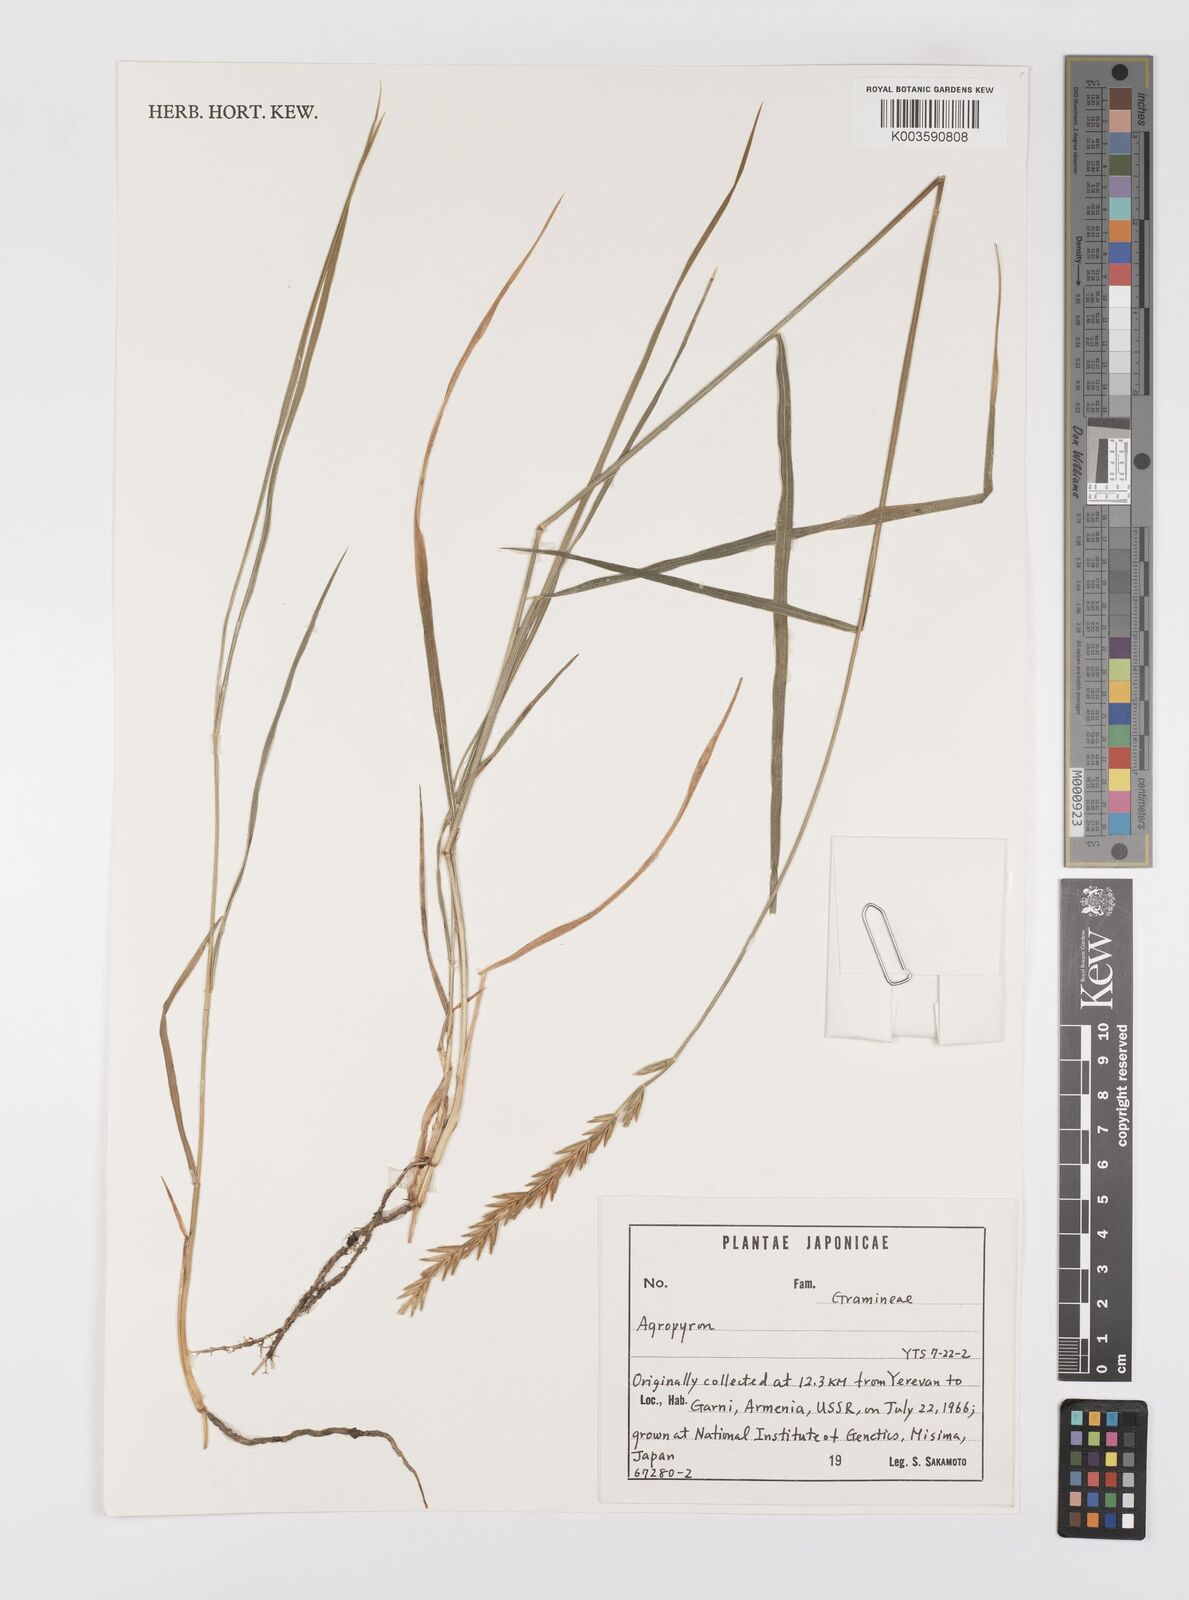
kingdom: Plantae
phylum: Tracheophyta
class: Liliopsida
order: Poales
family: Poaceae
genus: Elymus
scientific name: Elymus
